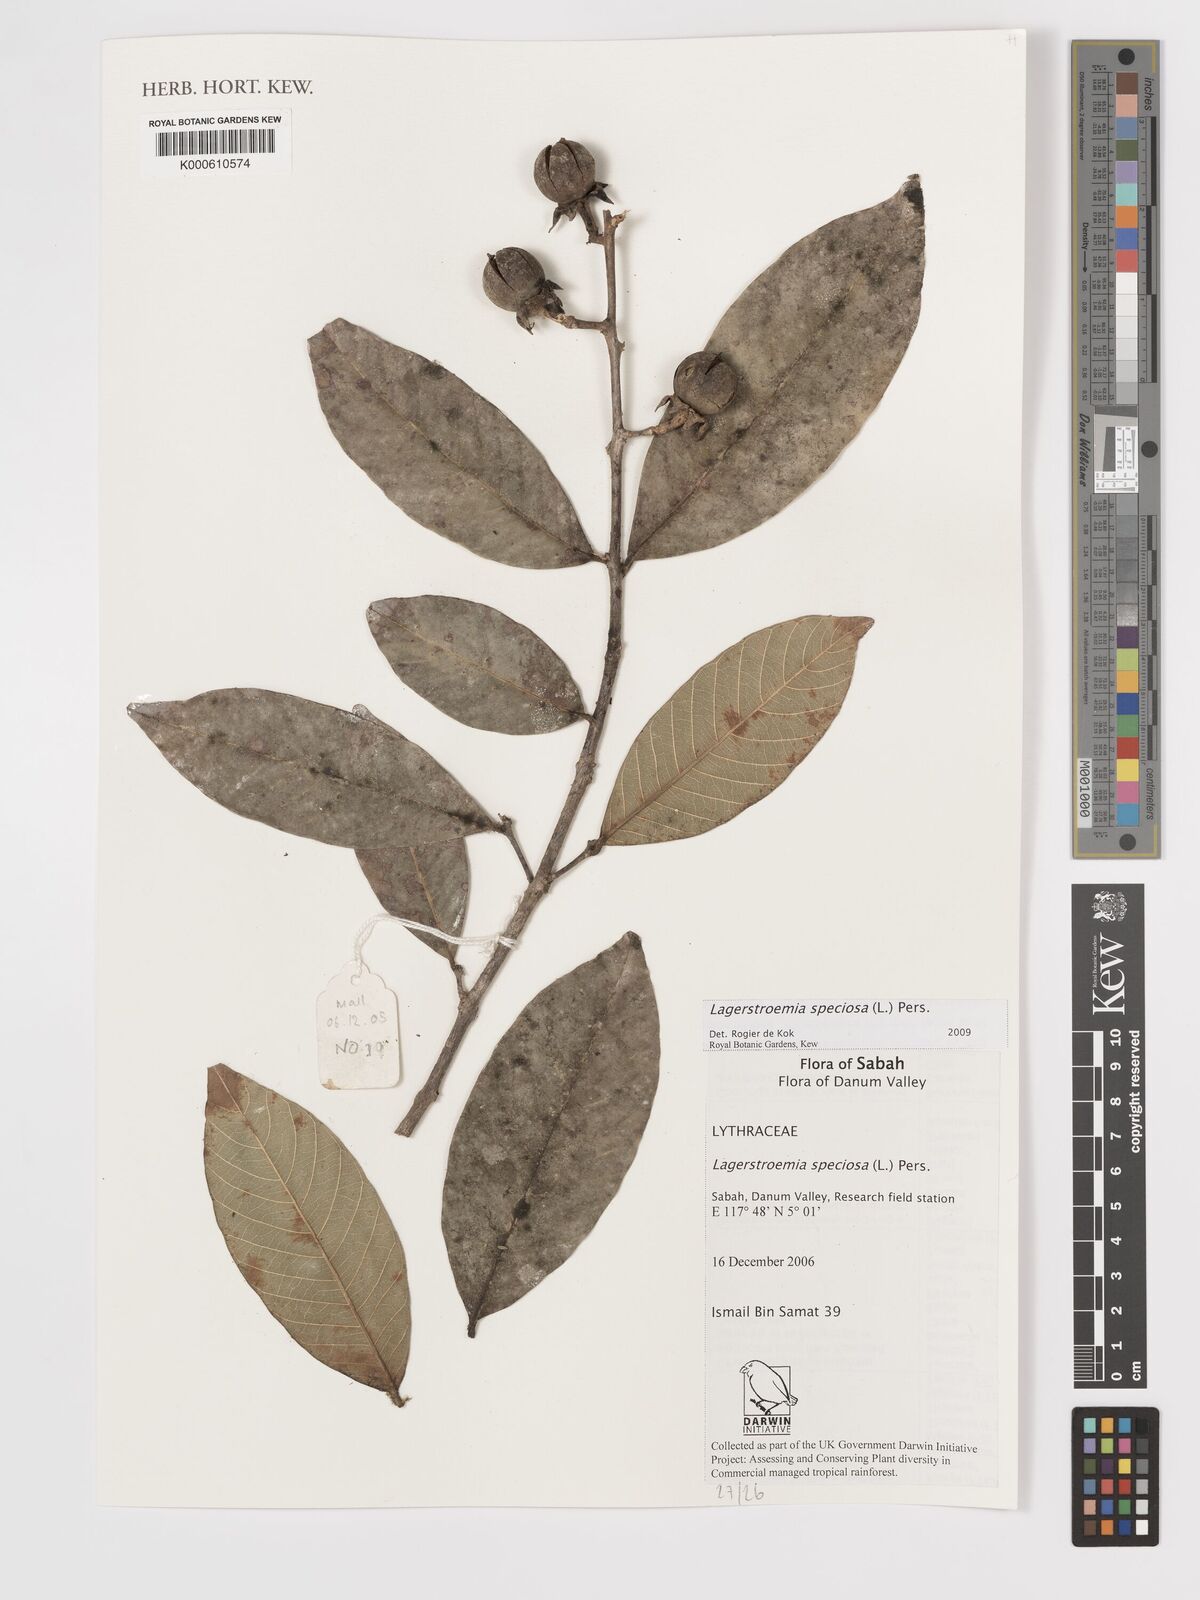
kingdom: Plantae
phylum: Tracheophyta
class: Magnoliopsida
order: Myrtales
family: Lythraceae
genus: Lagerstroemia
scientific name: Lagerstroemia speciosa
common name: Queen's crape-myrtle
